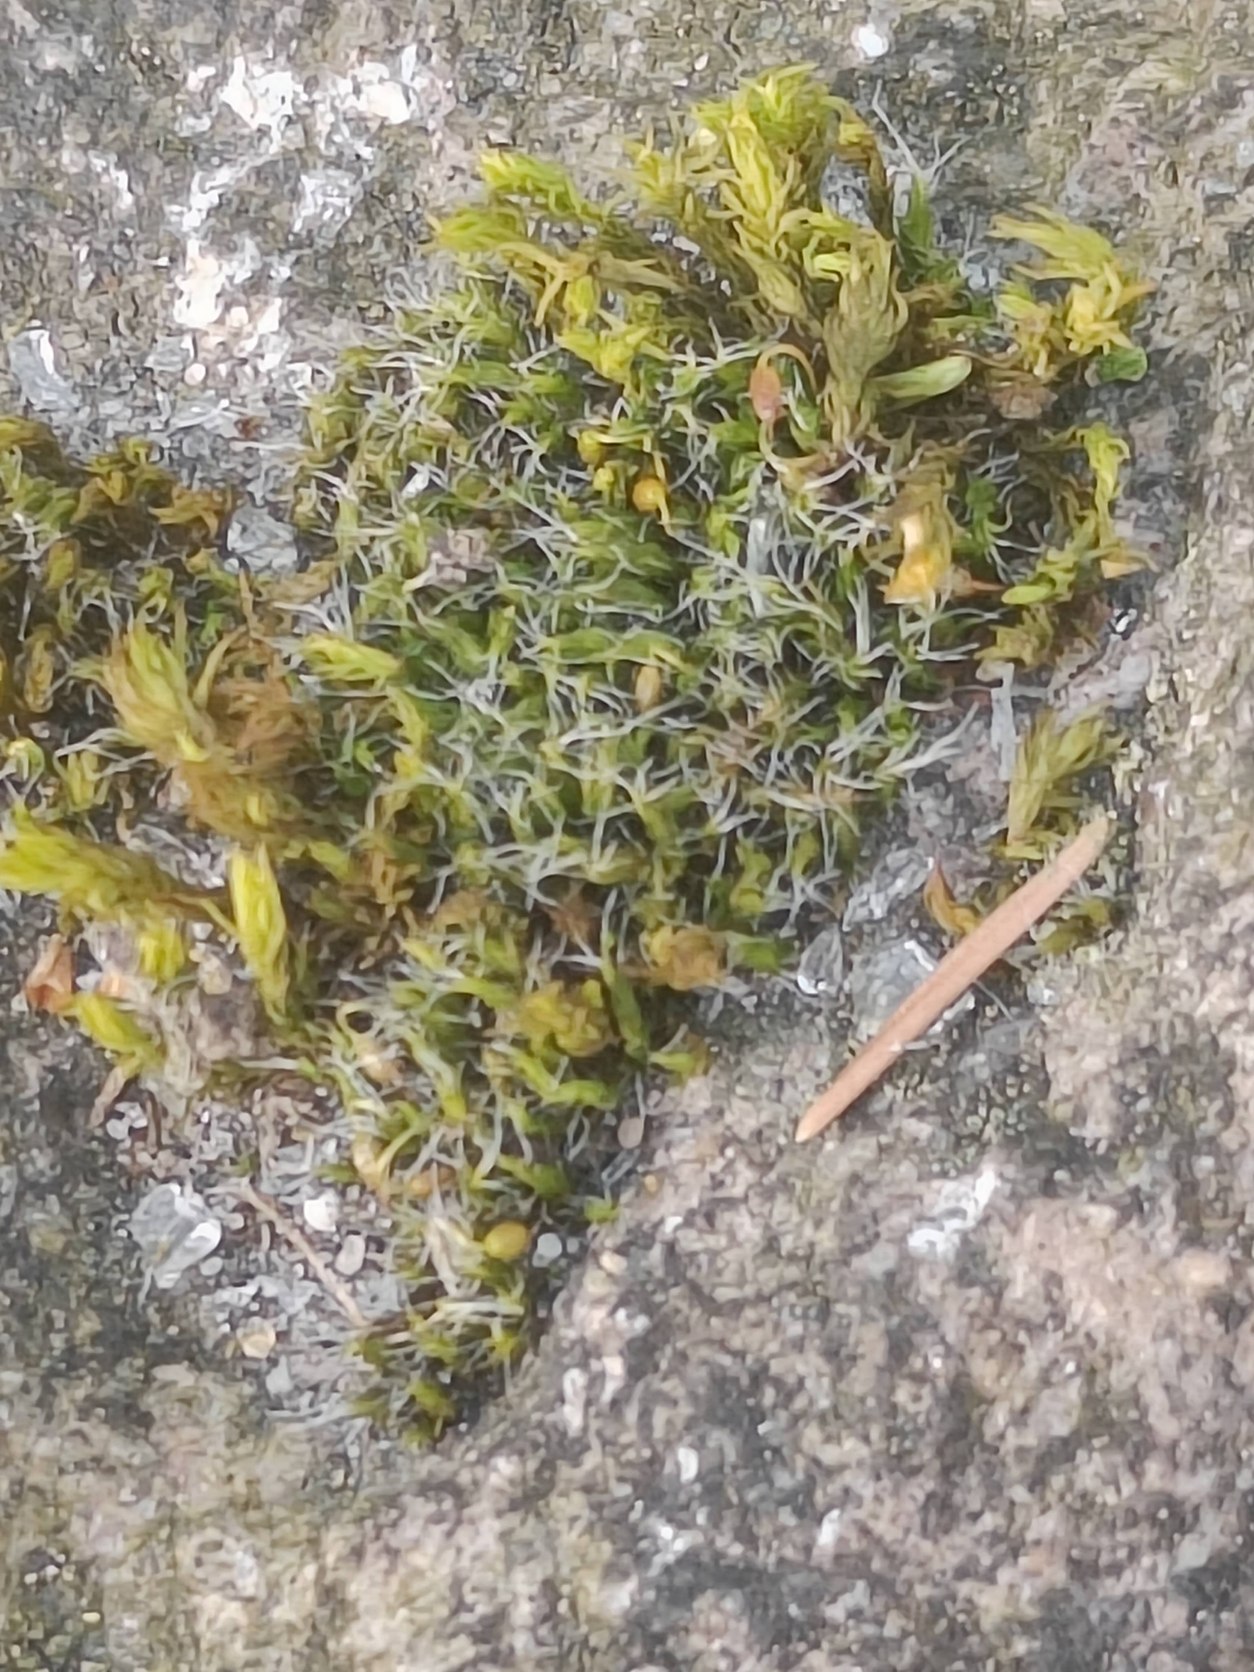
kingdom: Plantae
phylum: Bryophyta
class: Bryopsida
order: Grimmiales
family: Grimmiaceae
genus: Grimmia
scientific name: Grimmia pulvinata
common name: Pude-gråmos
